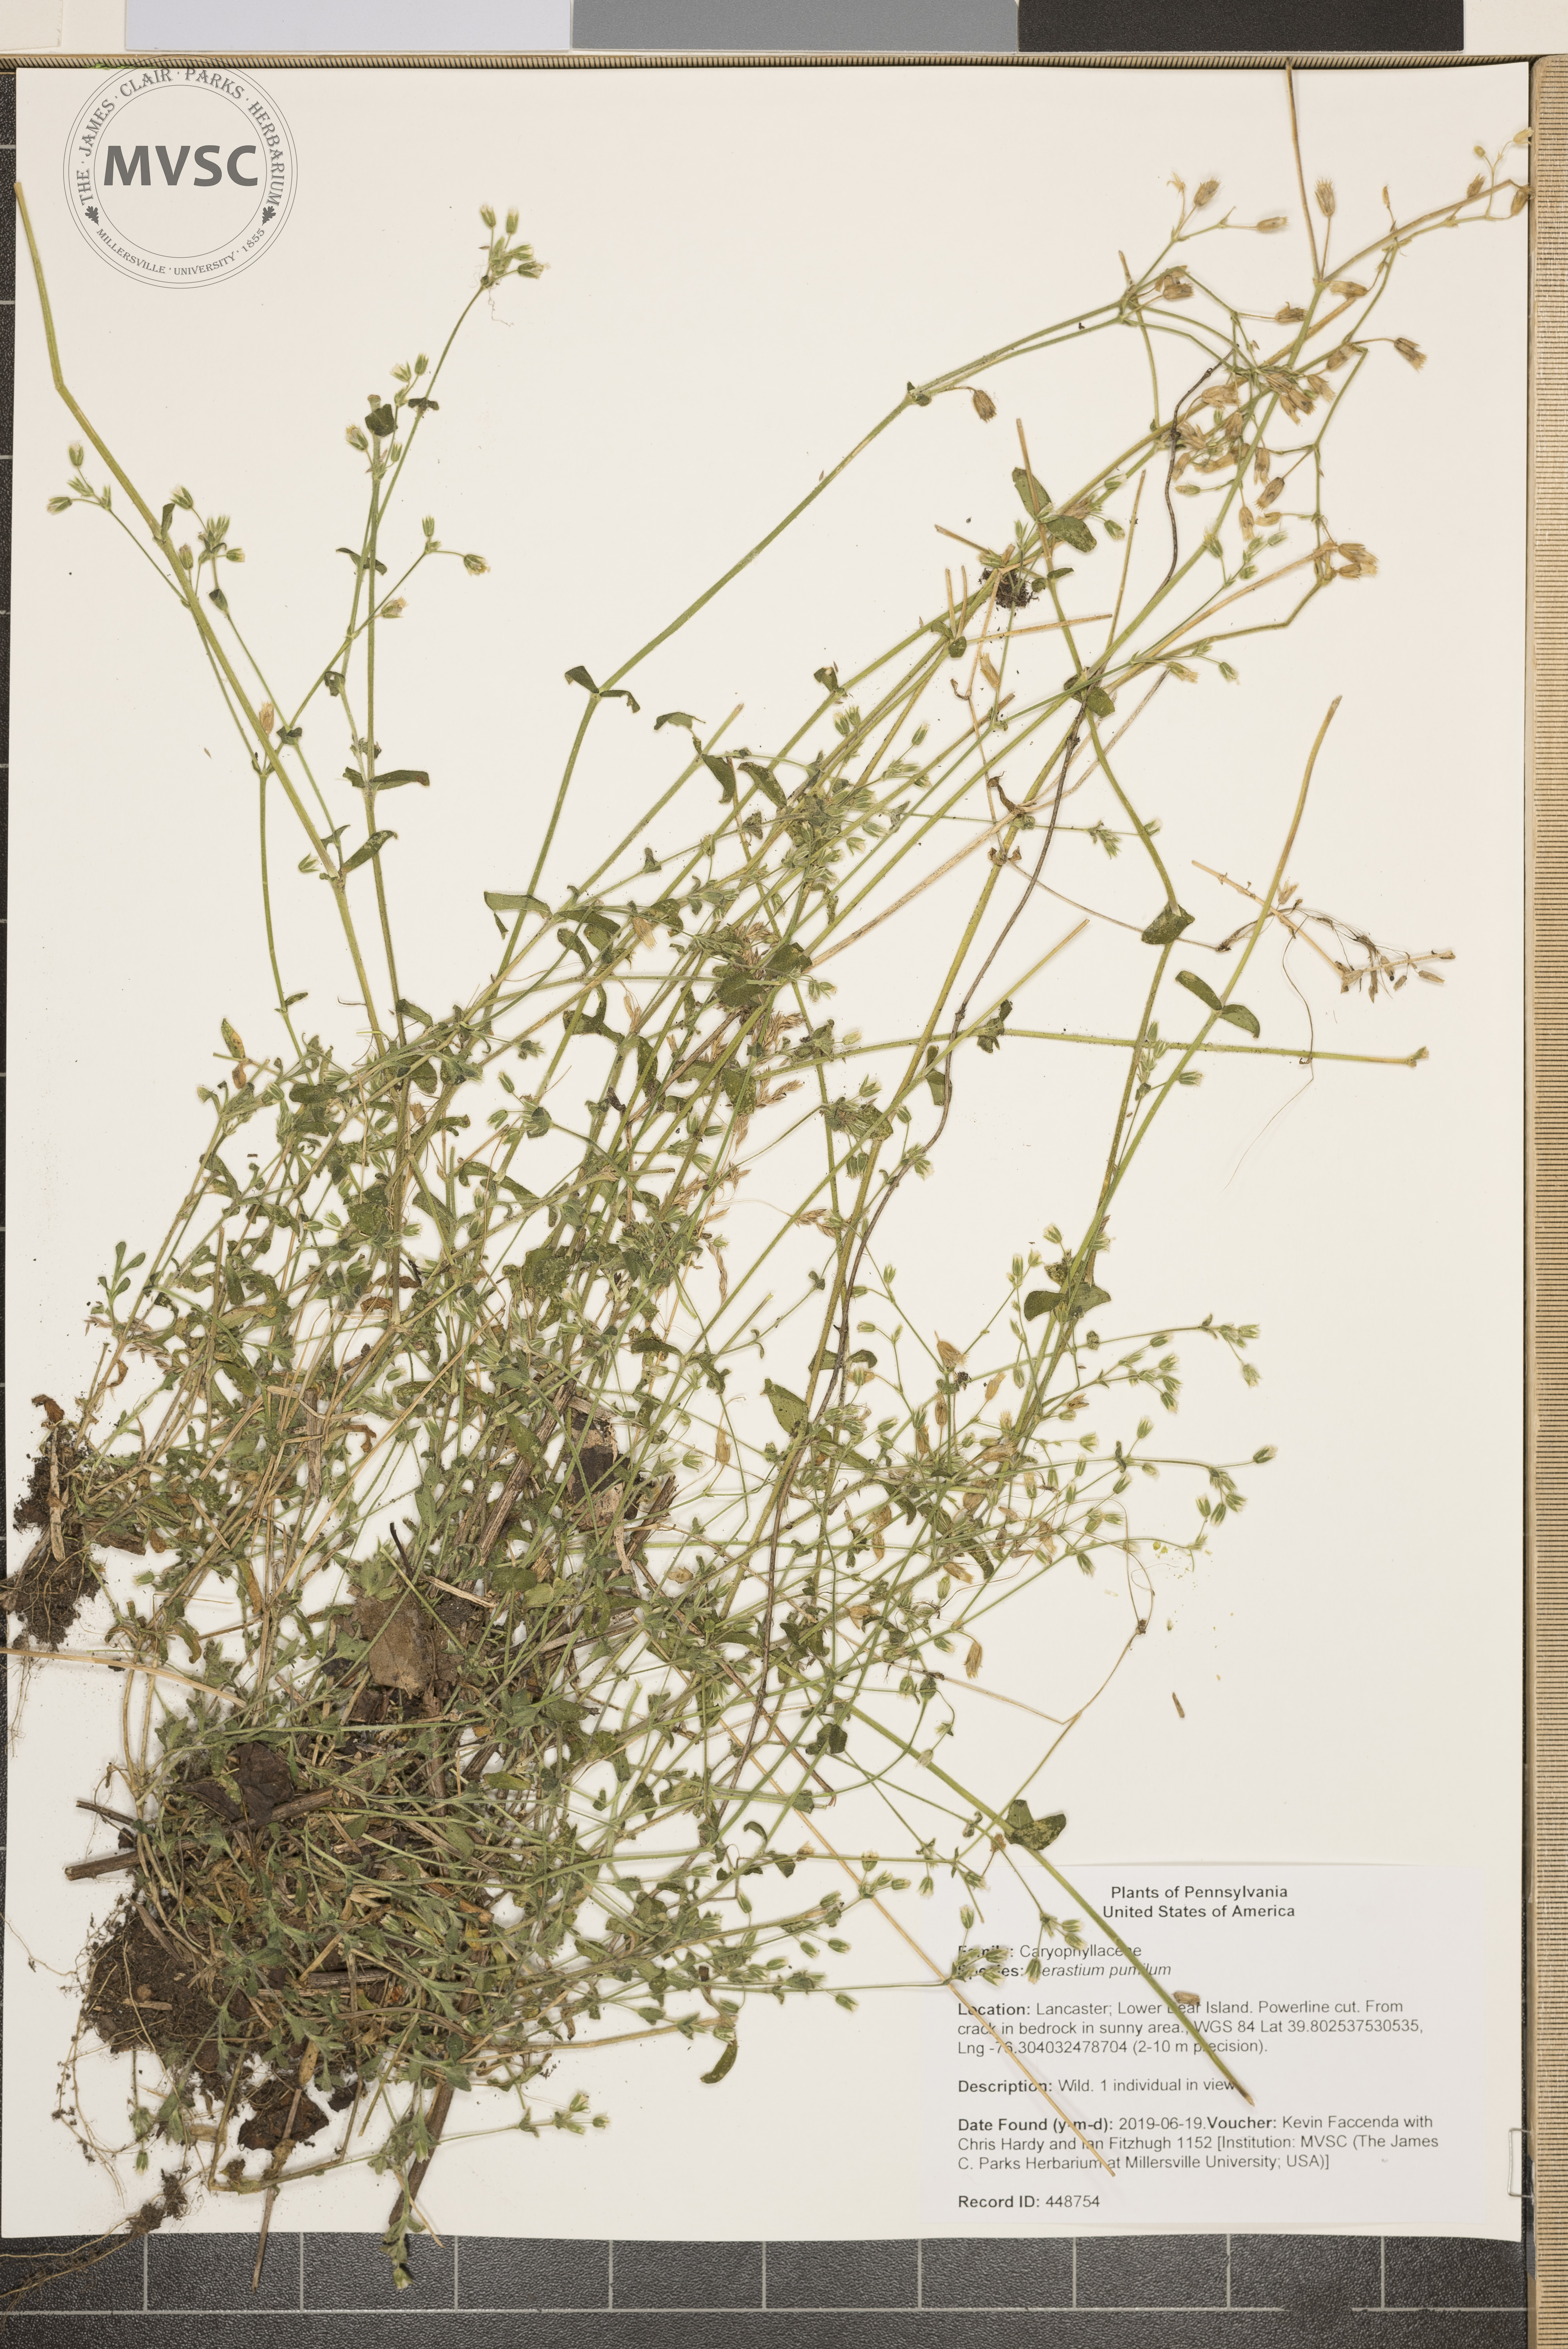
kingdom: Plantae
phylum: Tracheophyta
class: Magnoliopsida
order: Caryophyllales
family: Caryophyllaceae
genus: Cerastium
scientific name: Cerastium pumilum
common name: Dwarf mouse-ear
